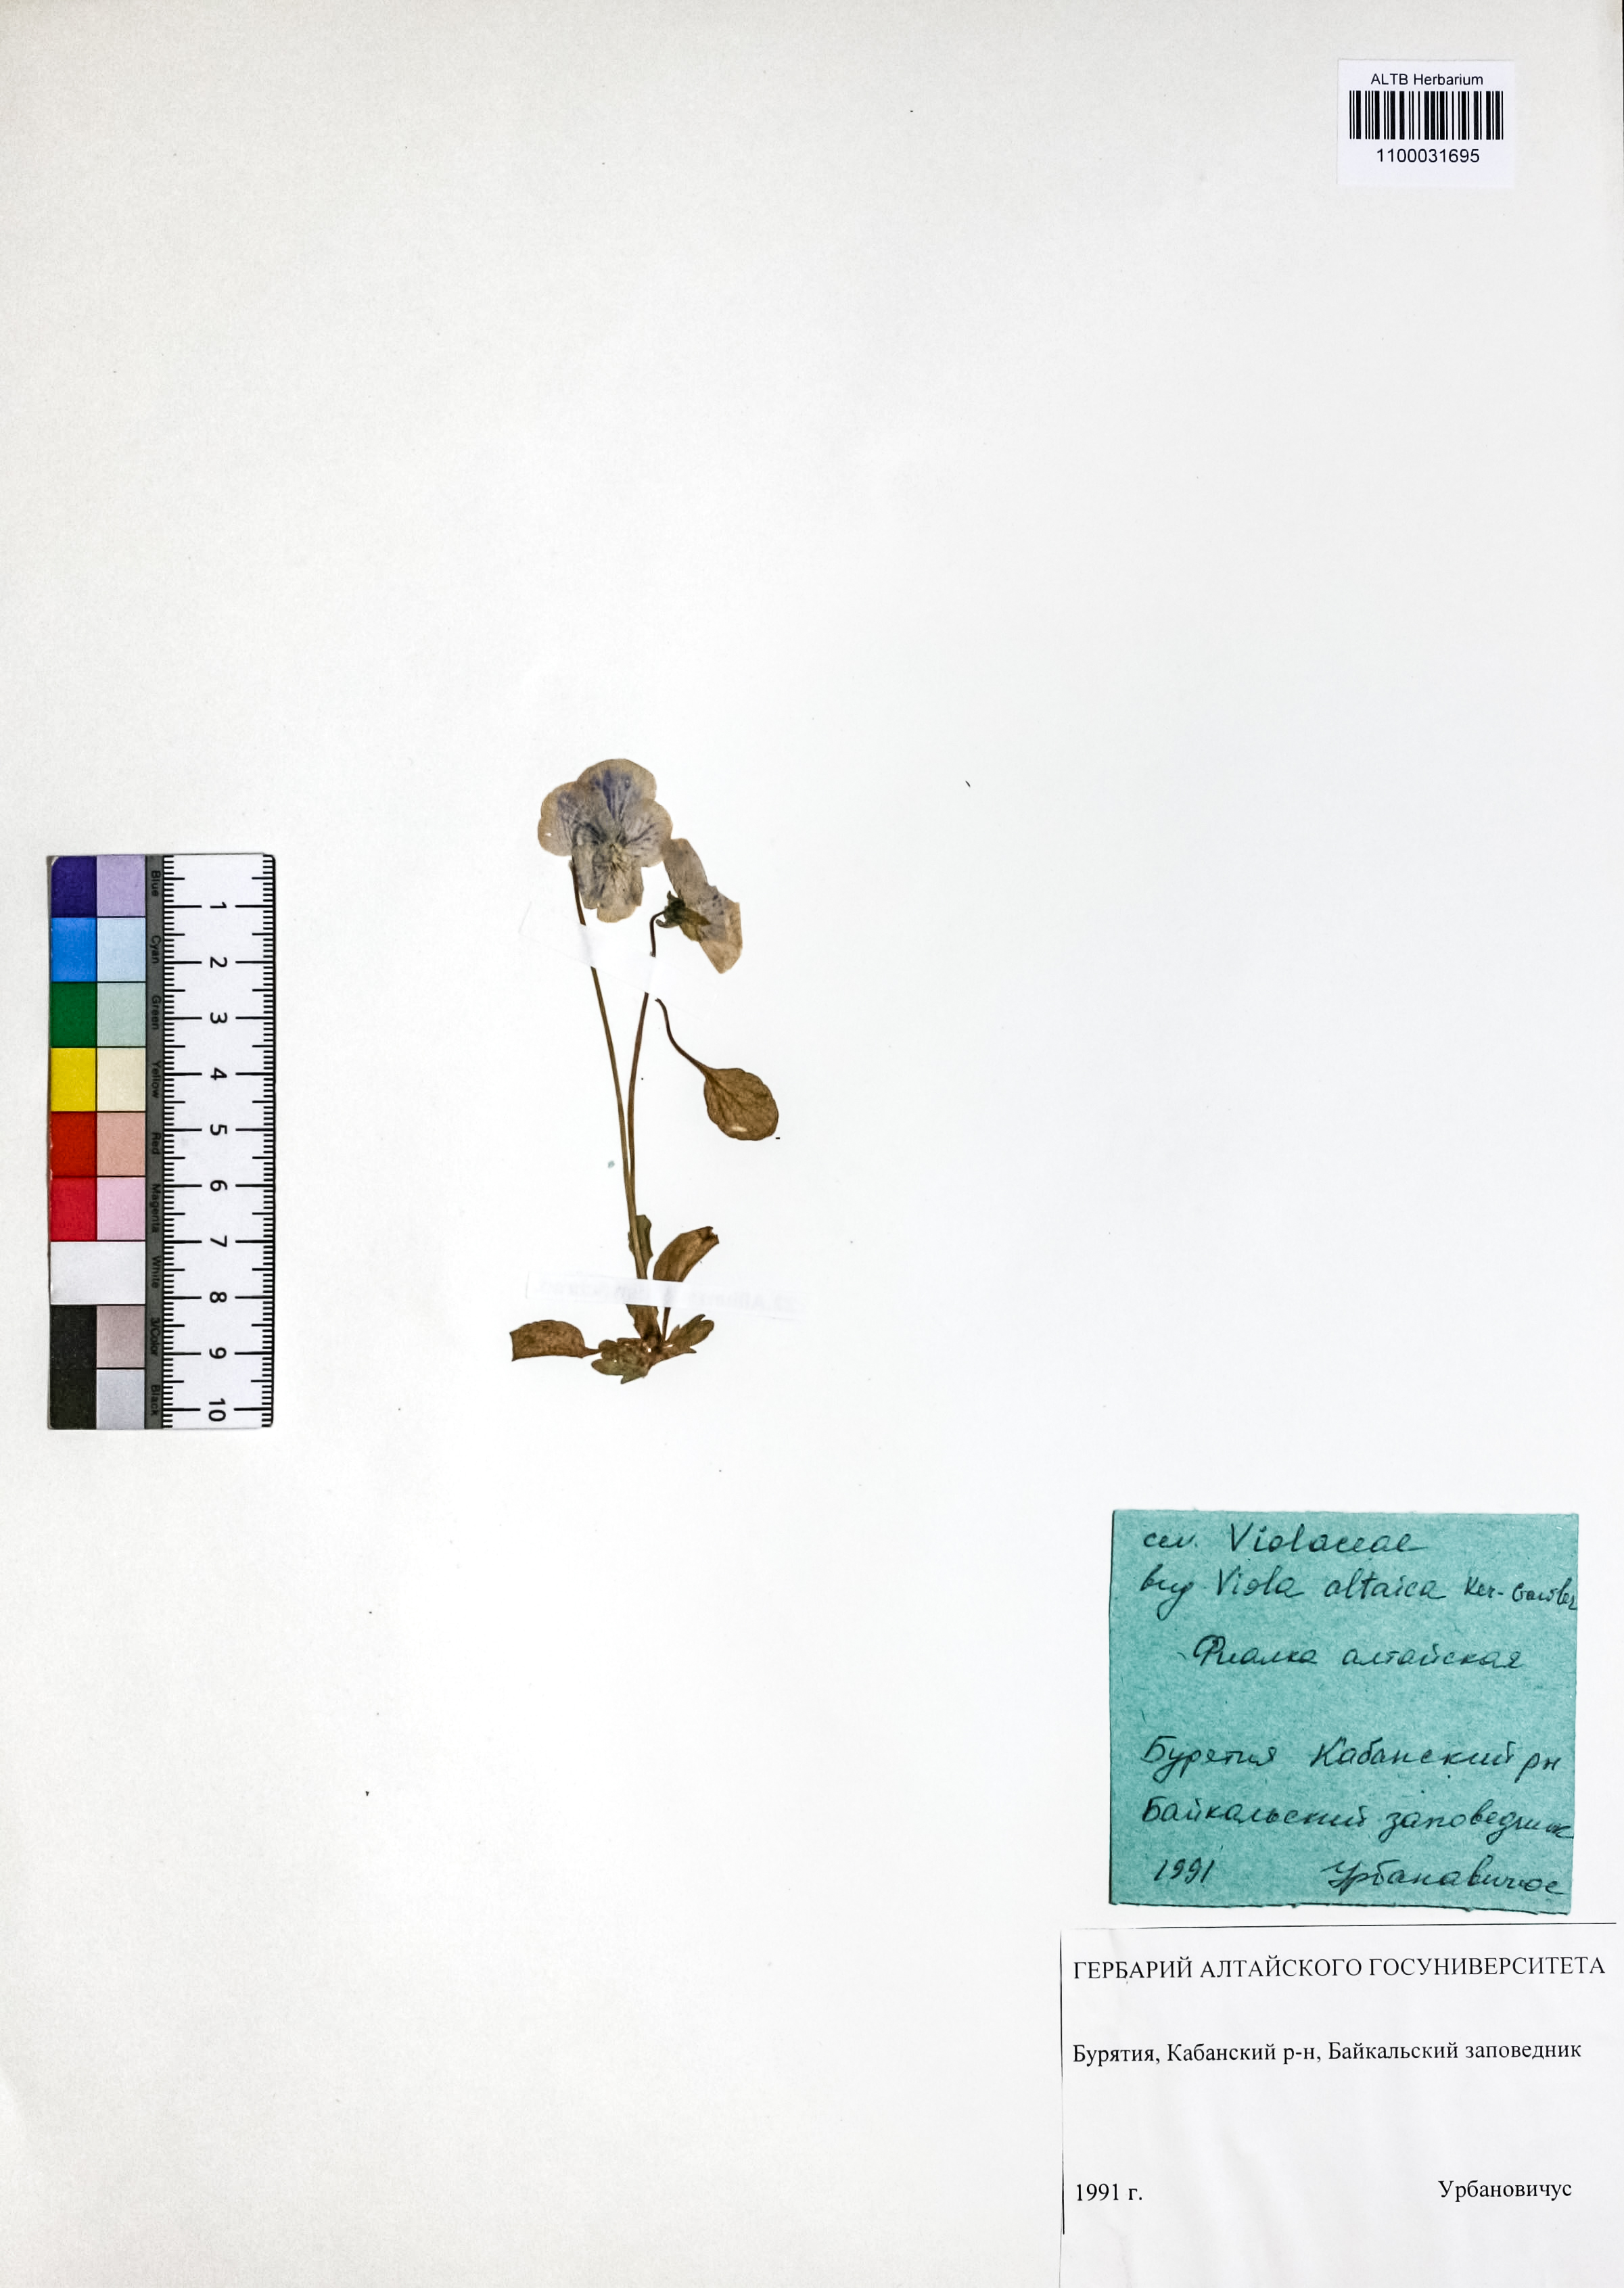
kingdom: Plantae
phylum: Tracheophyta
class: Magnoliopsida
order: Malpighiales
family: Violaceae
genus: Viola
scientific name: Viola altaica
